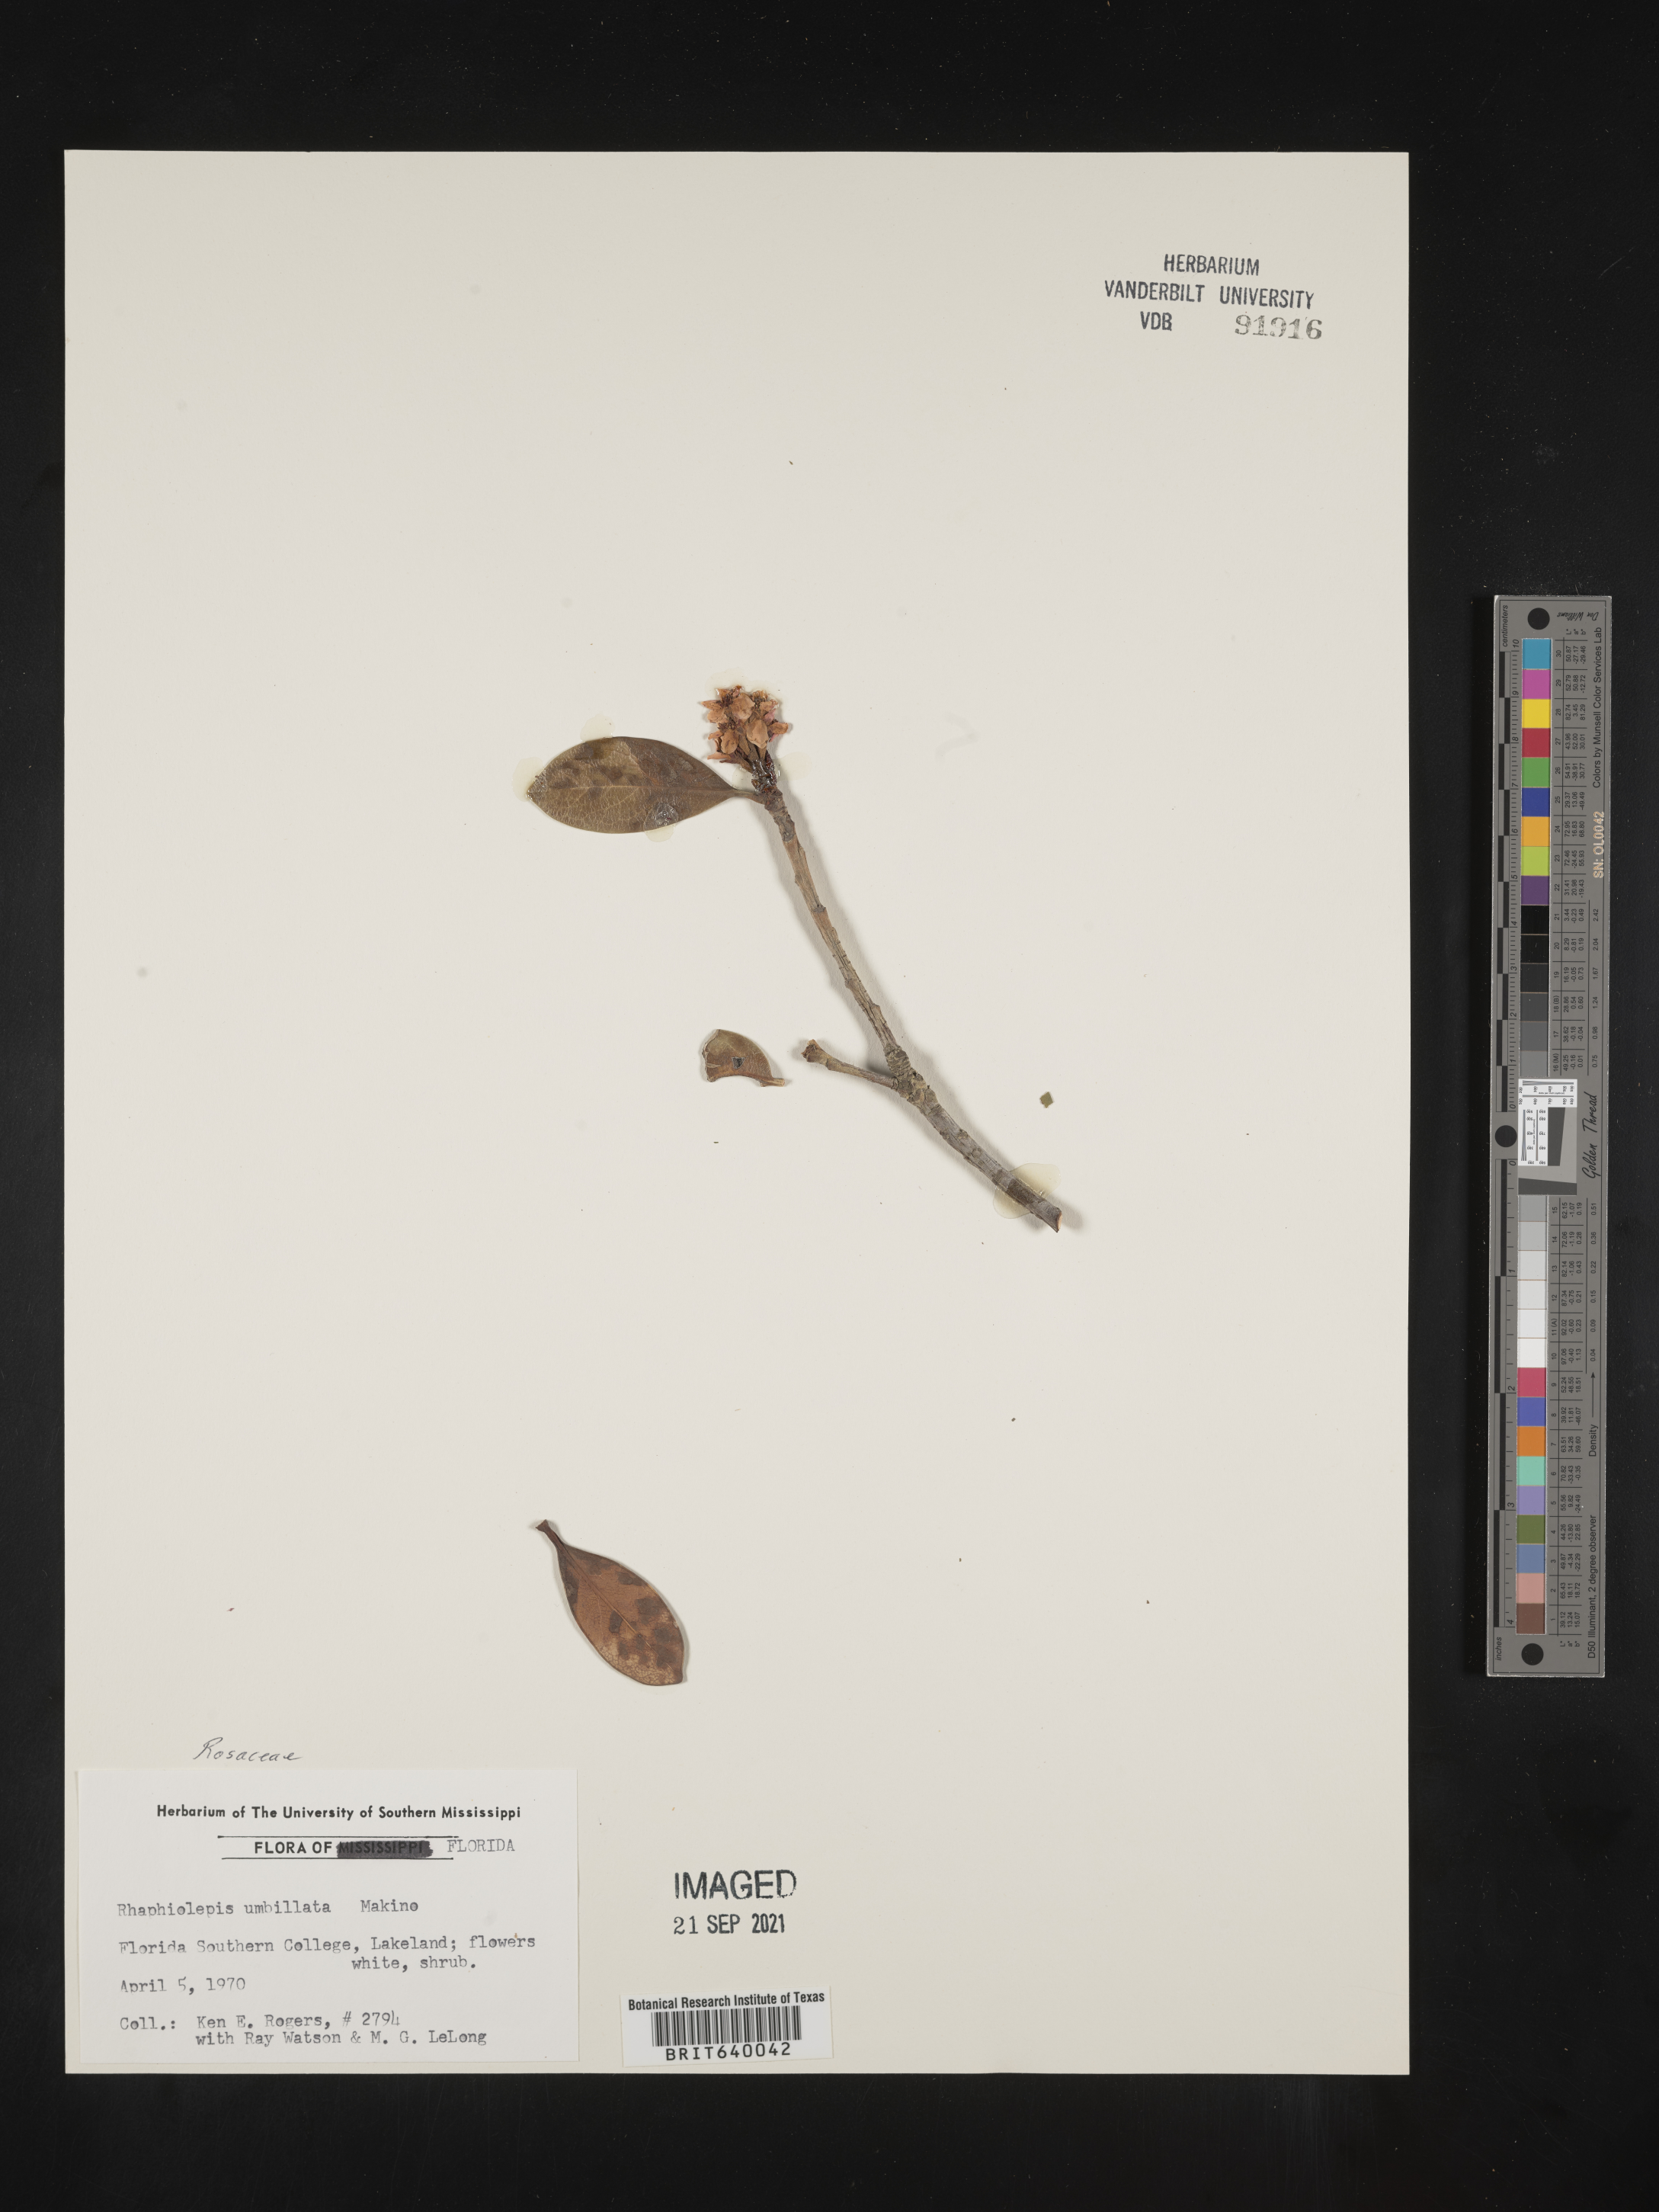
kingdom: Plantae
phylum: Tracheophyta
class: Magnoliopsida
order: Rosales
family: Rosaceae
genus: Rhaphiolepis
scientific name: Rhaphiolepis
